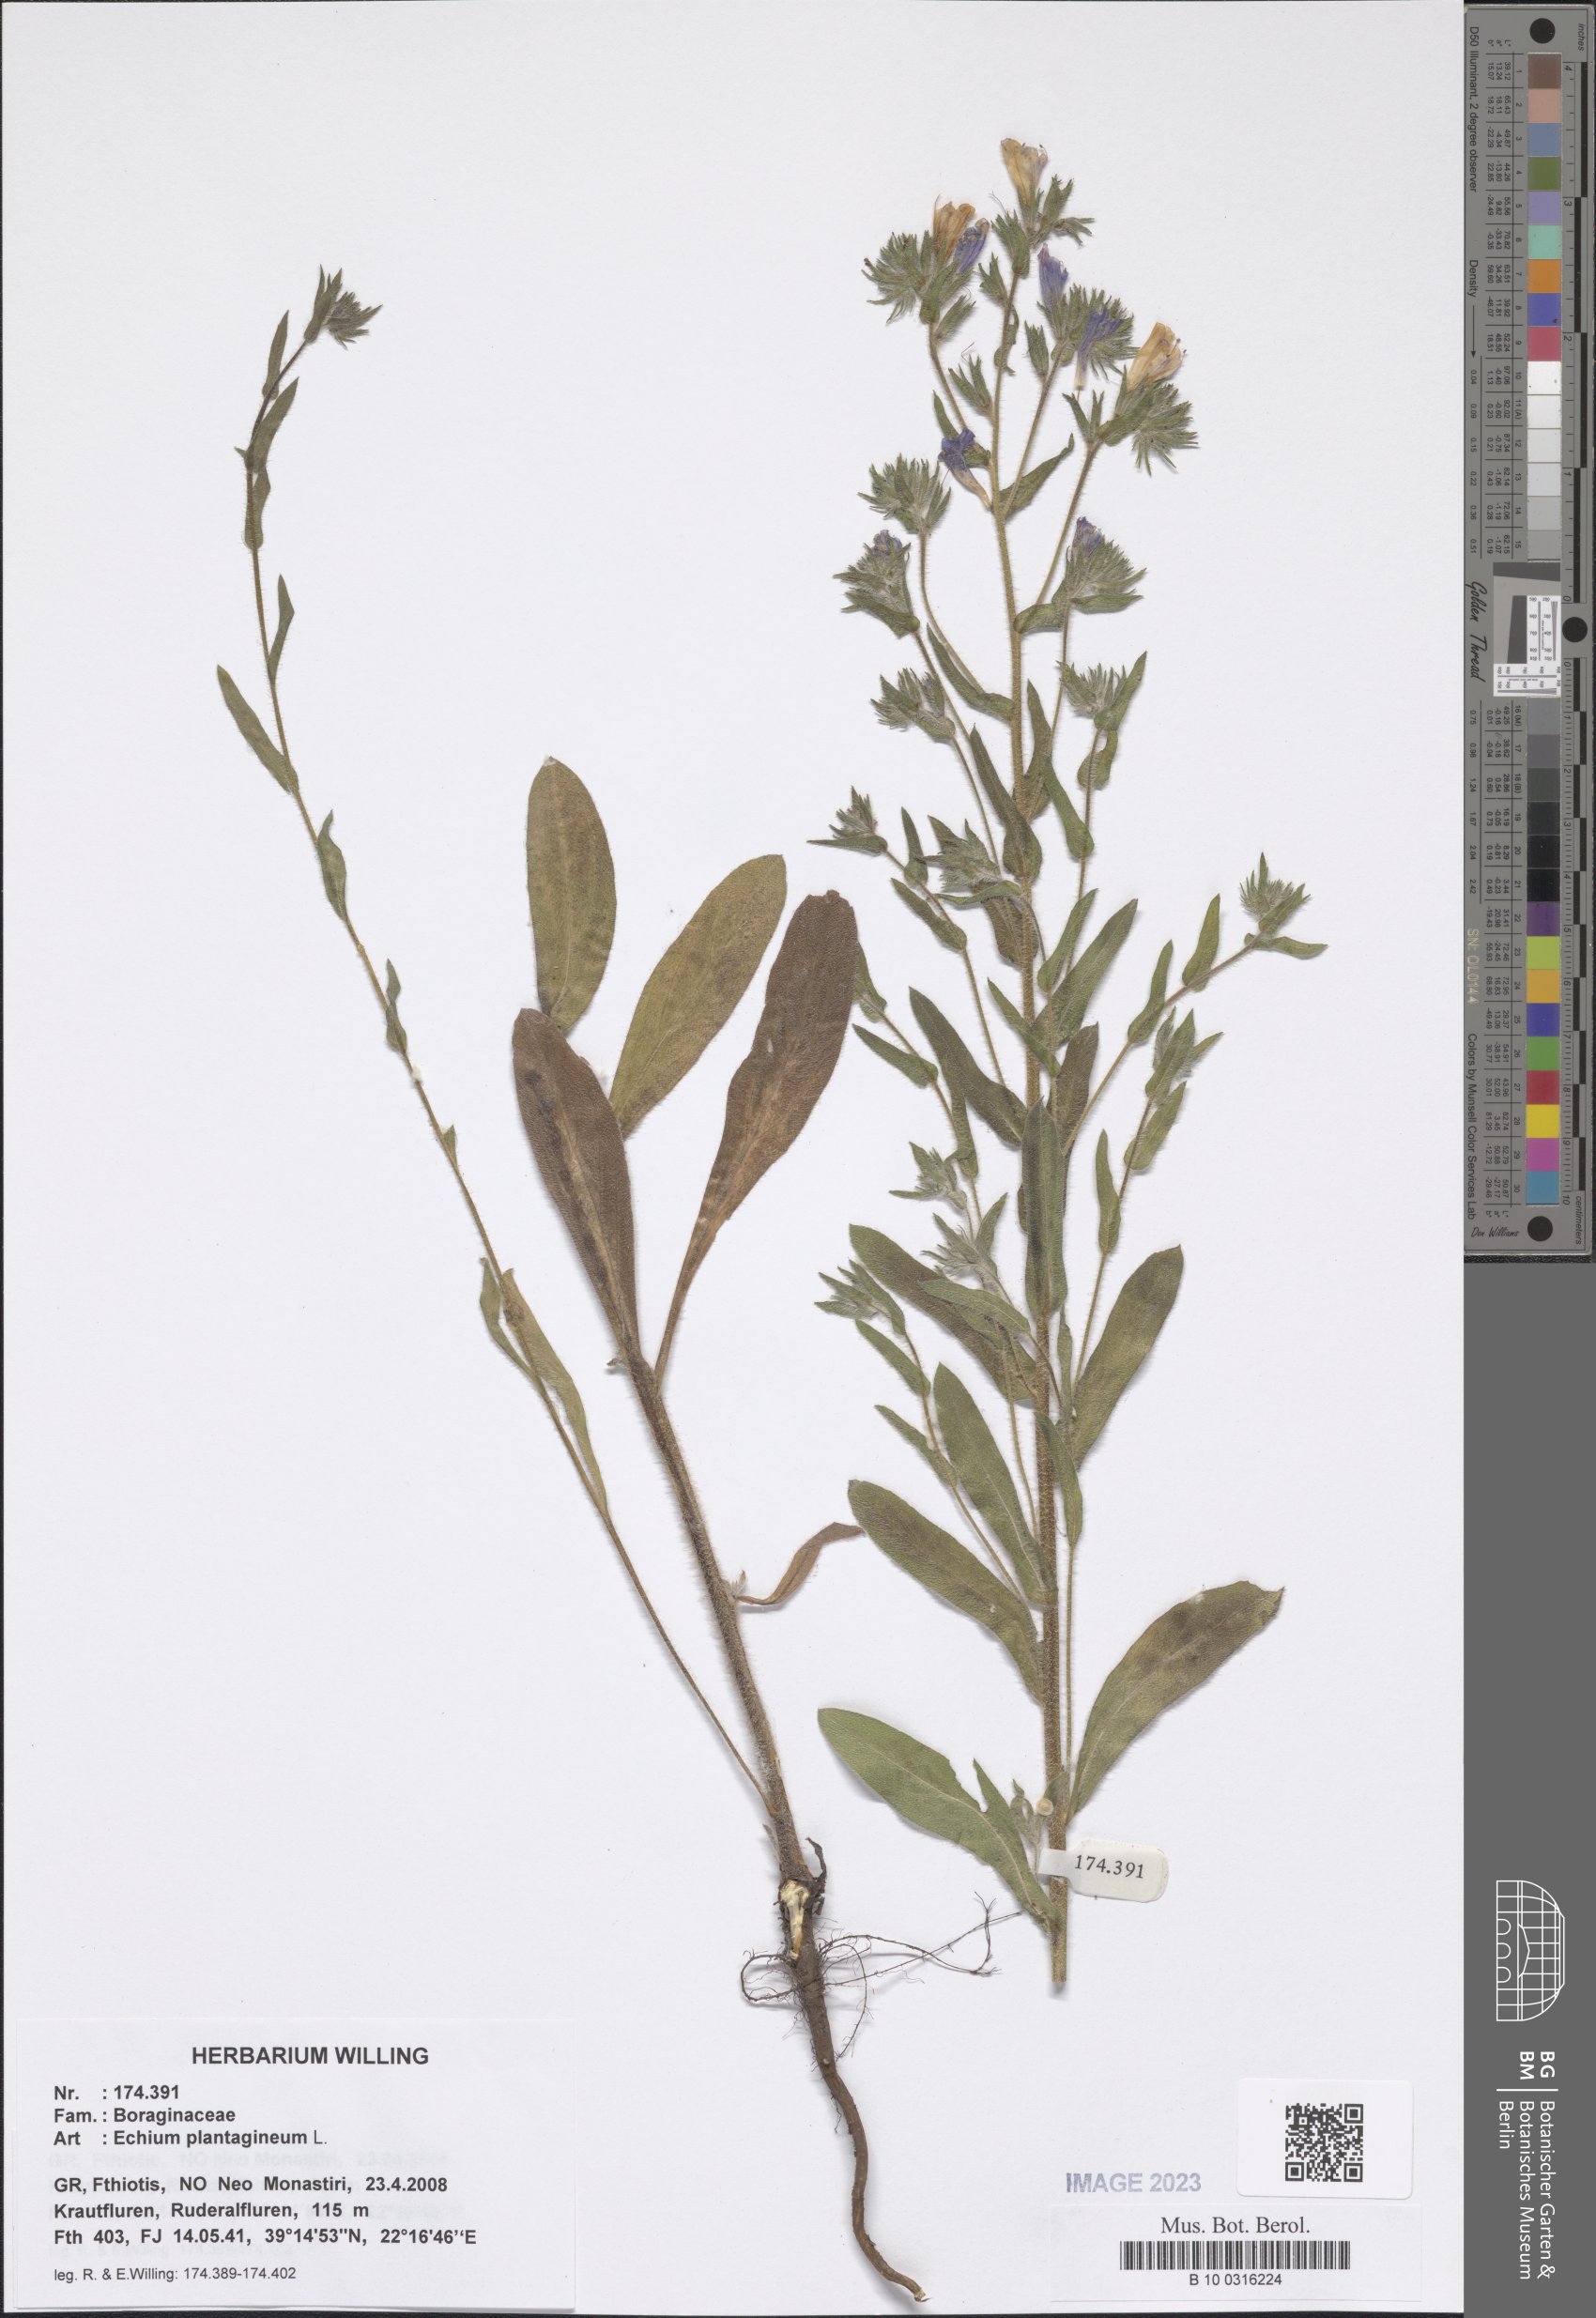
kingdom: Plantae
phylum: Tracheophyta
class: Magnoliopsida
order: Boraginales
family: Boraginaceae
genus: Echium
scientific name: Echium plantagineum
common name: Purple viper's-bugloss
